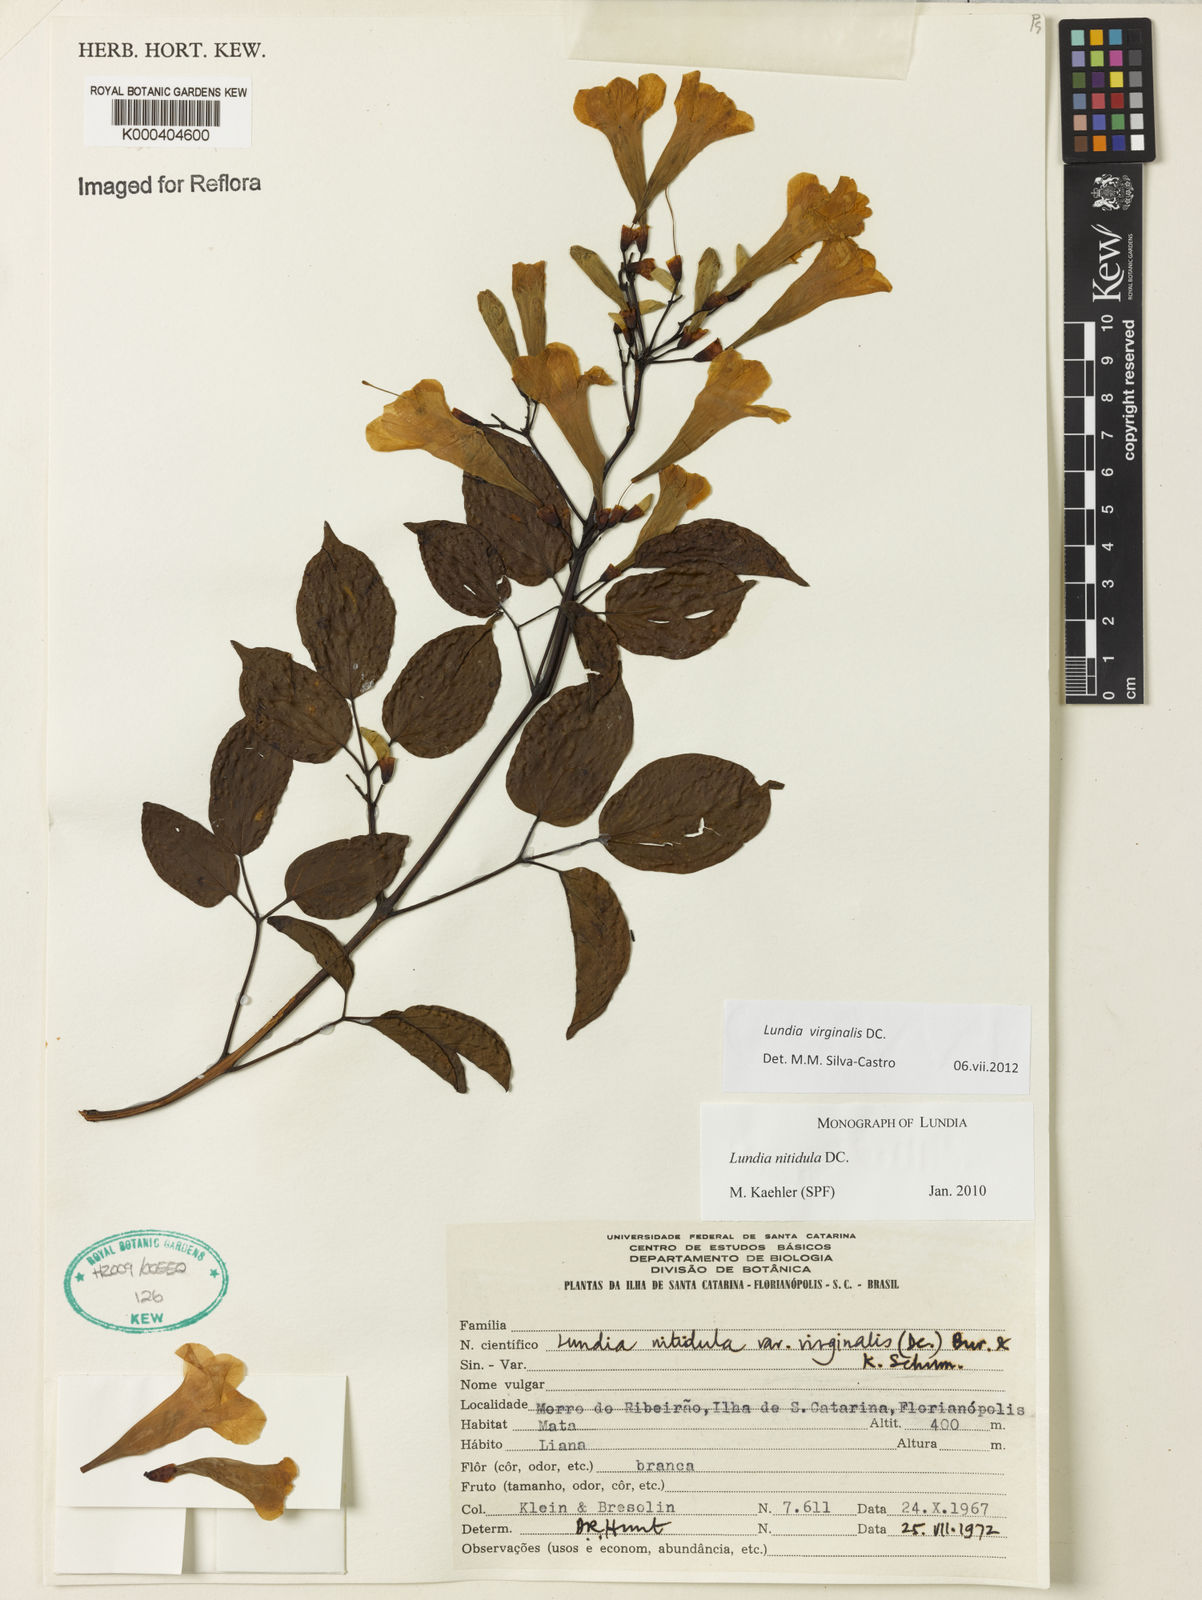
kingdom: Plantae
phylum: Tracheophyta
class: Magnoliopsida
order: Lamiales
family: Bignoniaceae
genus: Lundia
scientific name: Lundia virginalis
